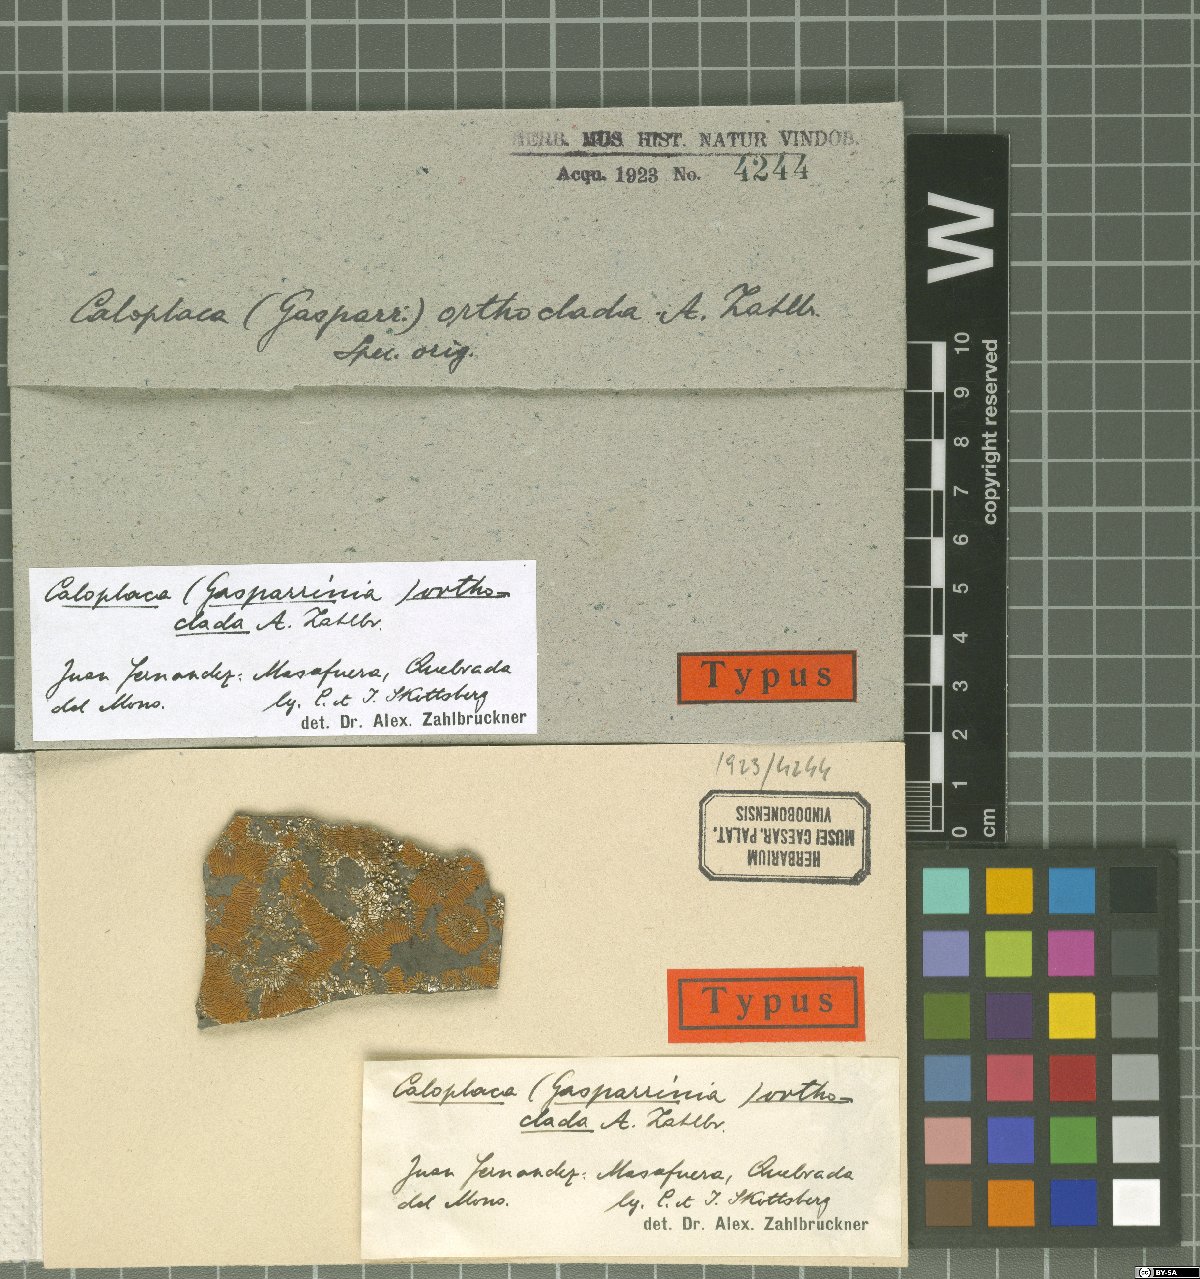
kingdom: Fungi
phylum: Ascomycota
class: Lecanoromycetes
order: Teloschistales
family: Teloschistaceae
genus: Follmannia
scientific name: Follmannia orthoclada
